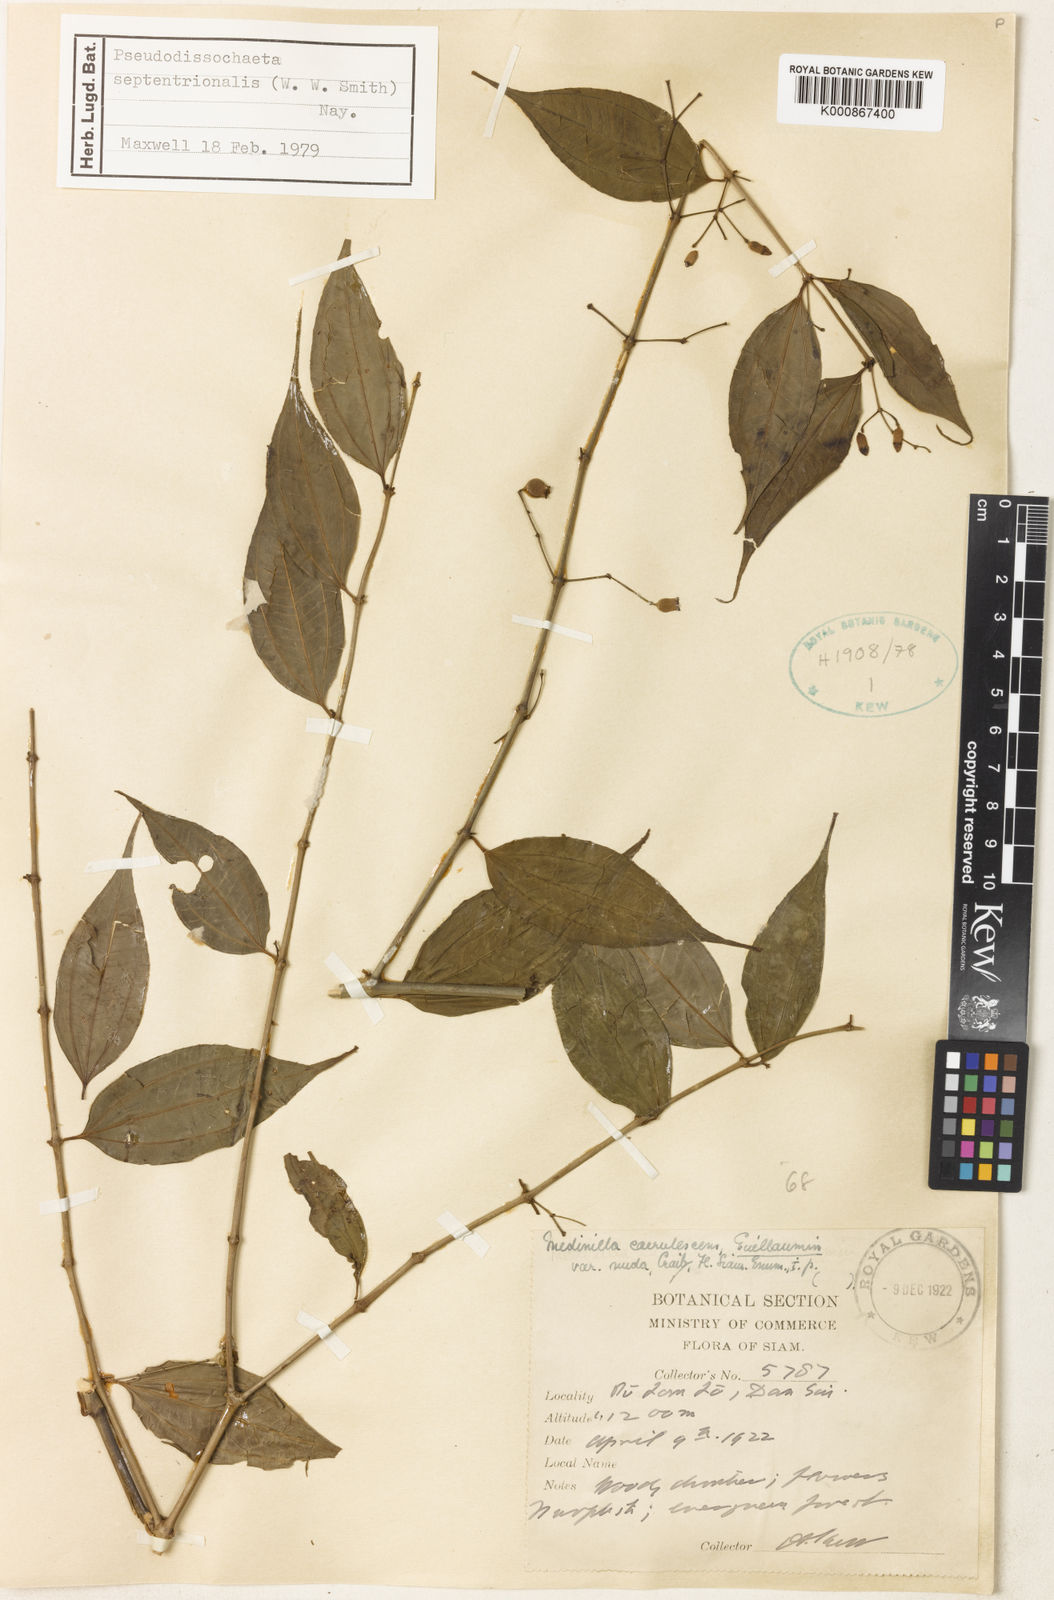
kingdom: Plantae
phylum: Tracheophyta
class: Magnoliopsida
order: Myrtales
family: Melastomataceae
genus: Pseudodissochaeta
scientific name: Pseudodissochaeta septentrionalis
